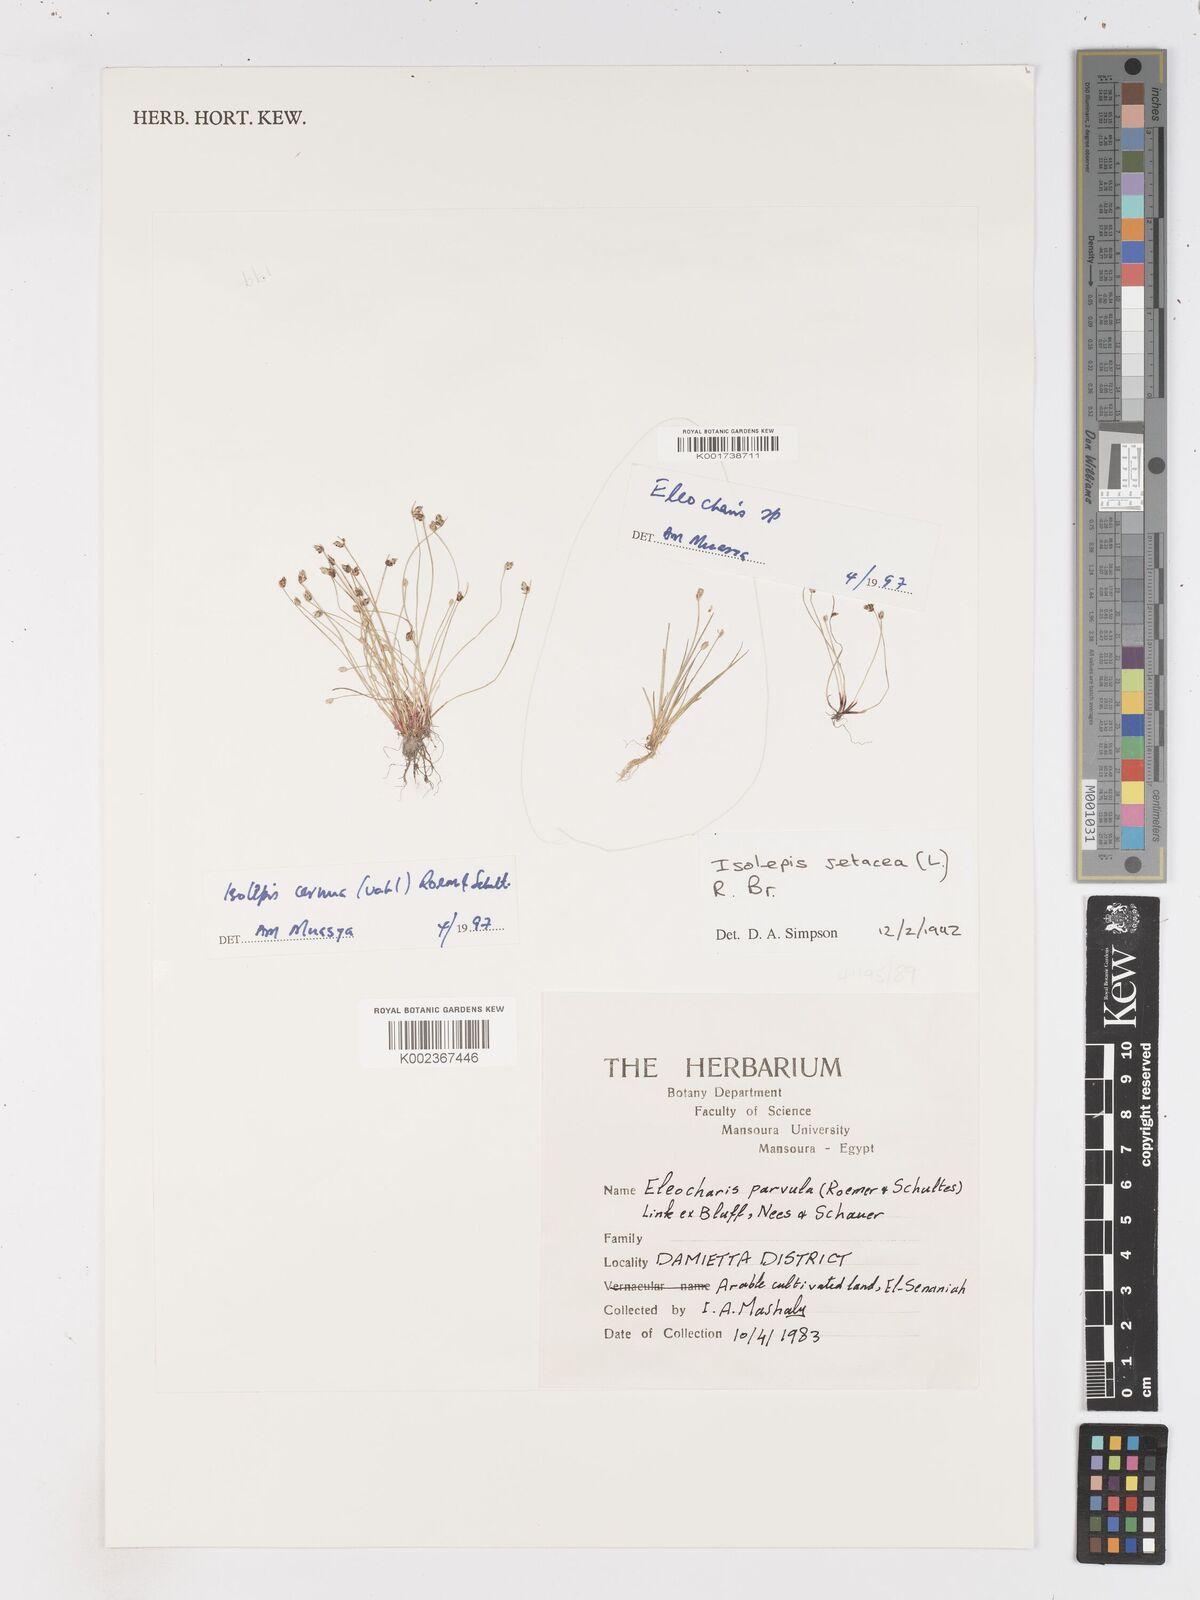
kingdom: Plantae
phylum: Tracheophyta
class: Liliopsida
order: Poales
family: Cyperaceae
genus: Isolepis
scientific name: Isolepis cernua
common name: Slender club-rush
